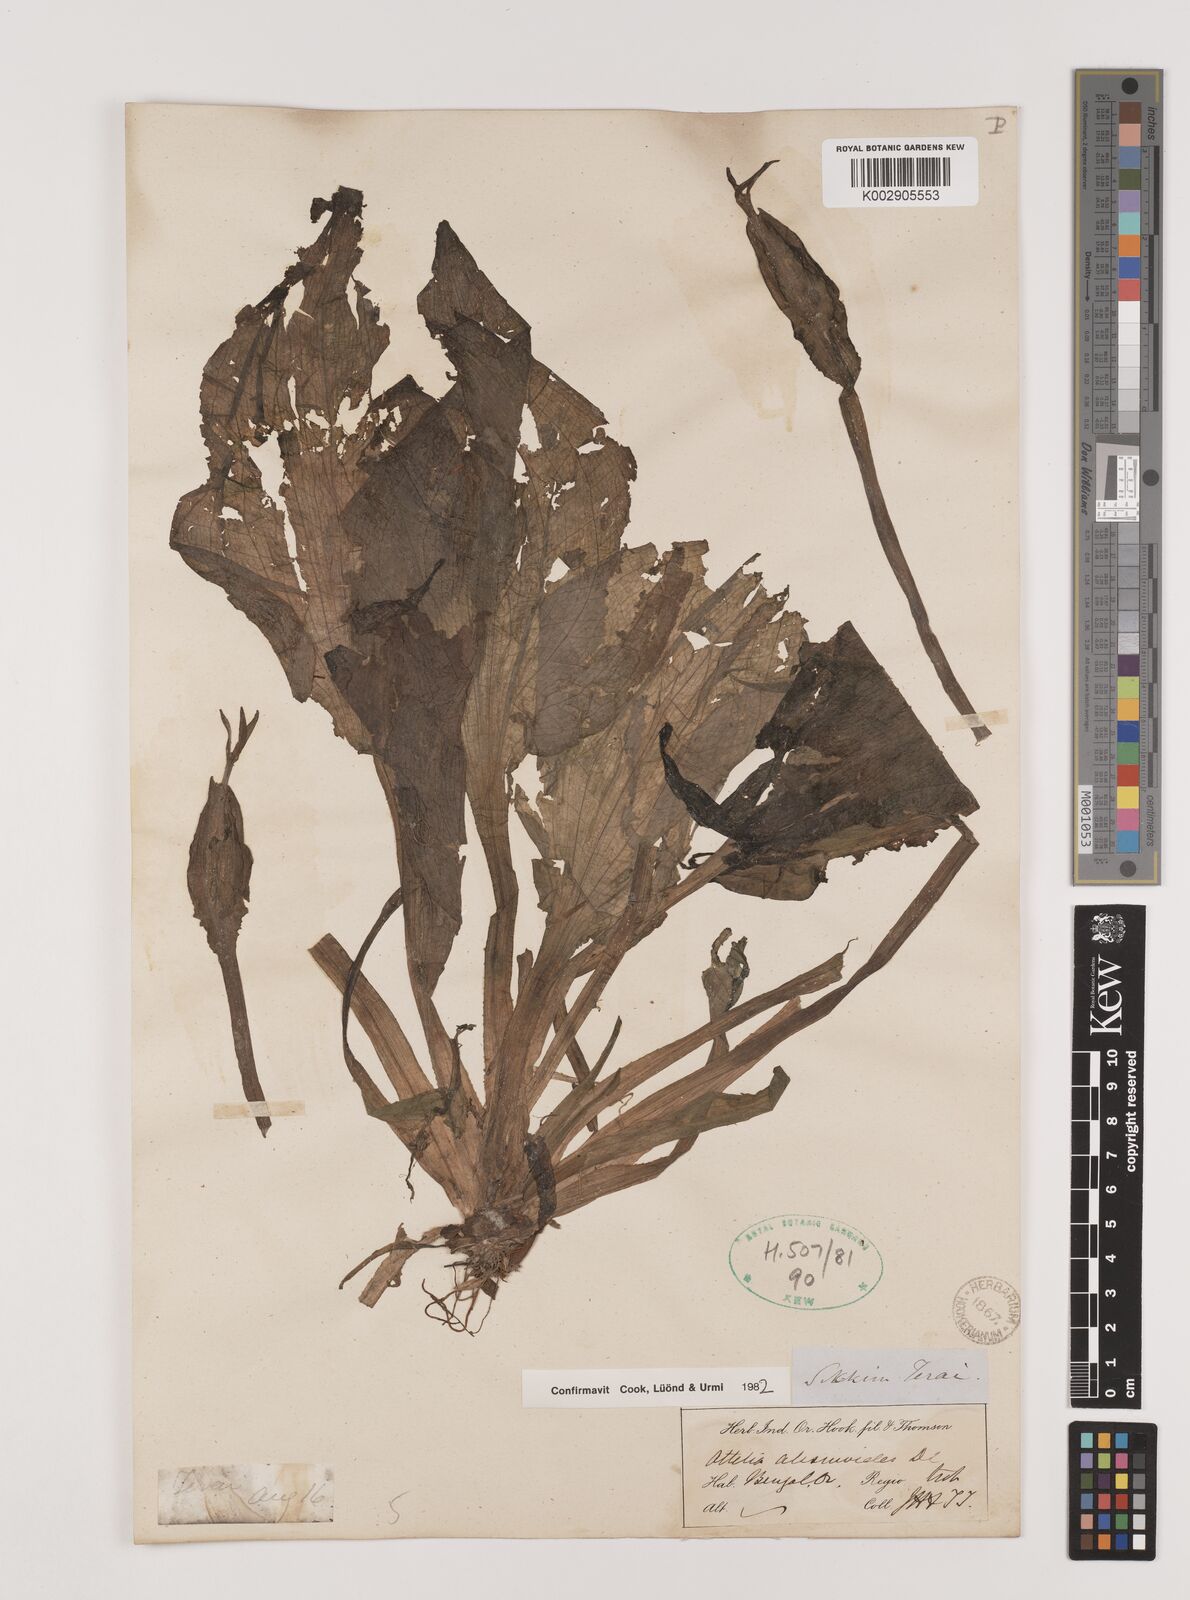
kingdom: Plantae
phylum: Tracheophyta
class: Liliopsida
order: Alismatales
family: Hydrocharitaceae
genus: Ottelia
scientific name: Ottelia alismoides
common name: Duck-lettuce
